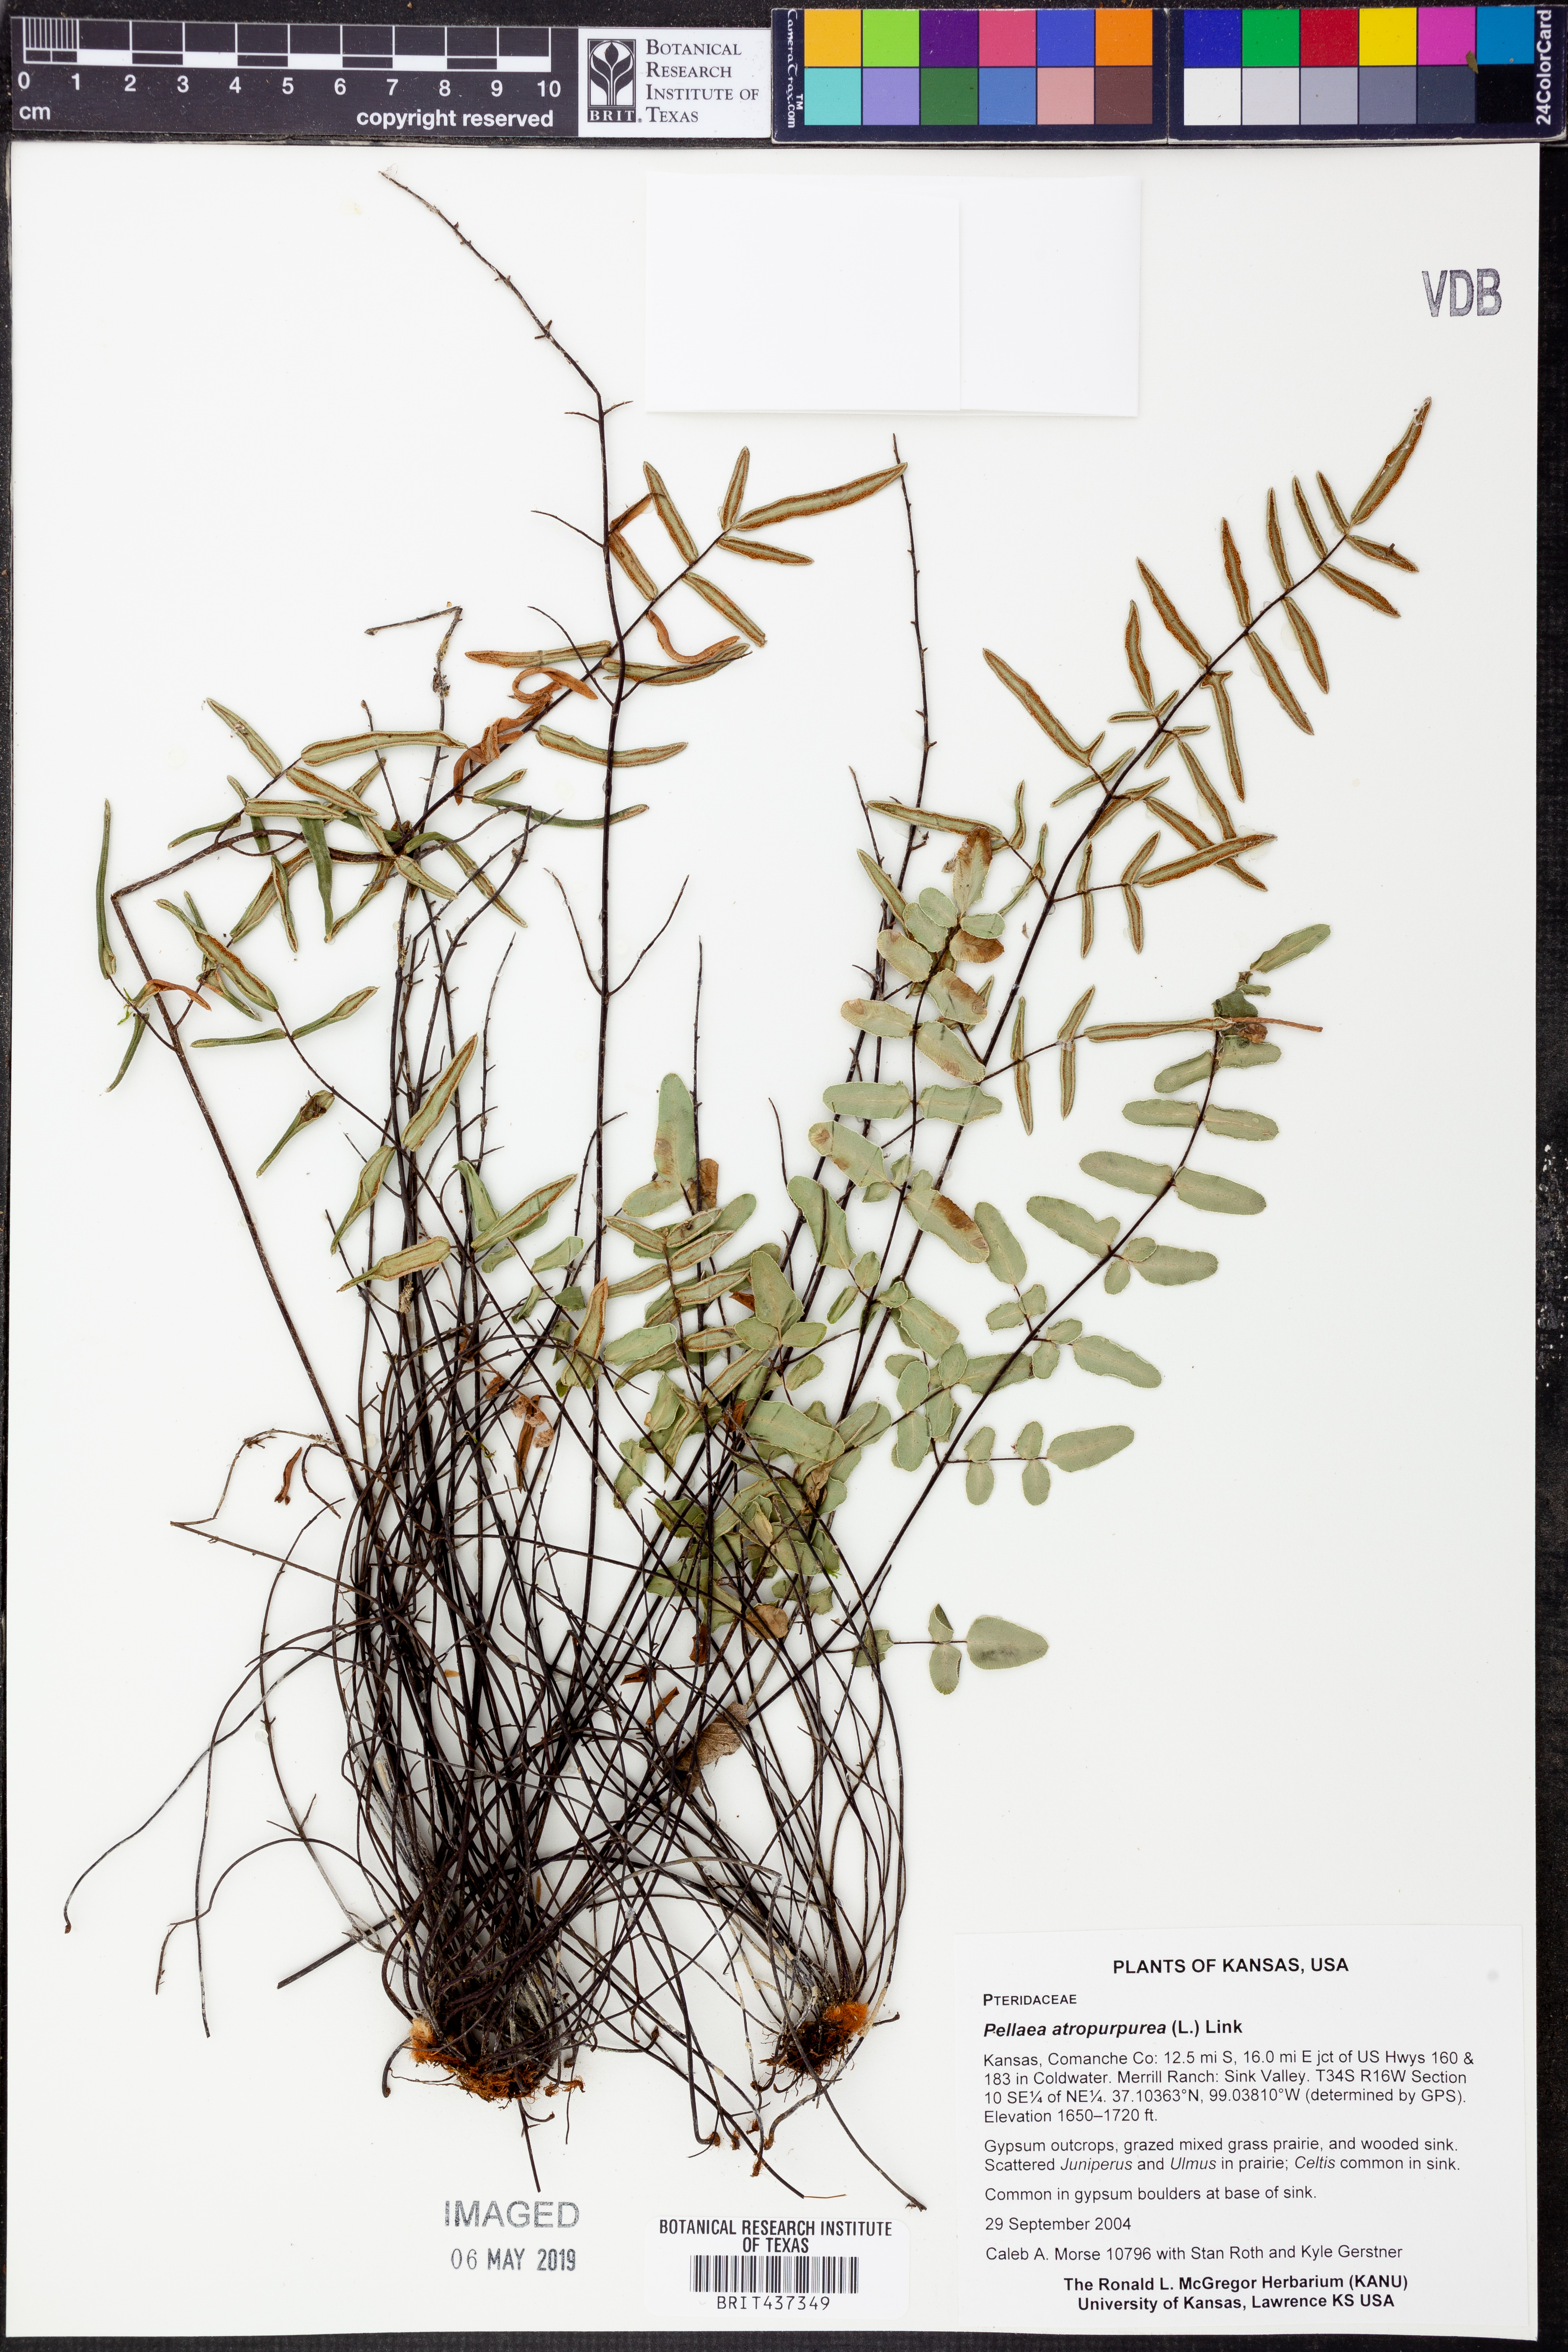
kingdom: Plantae
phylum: Tracheophyta
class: Polypodiopsida
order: Polypodiales
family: Pteridaceae
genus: Pellaea
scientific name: Pellaea atropurpurea
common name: Hairy cliffbrake
